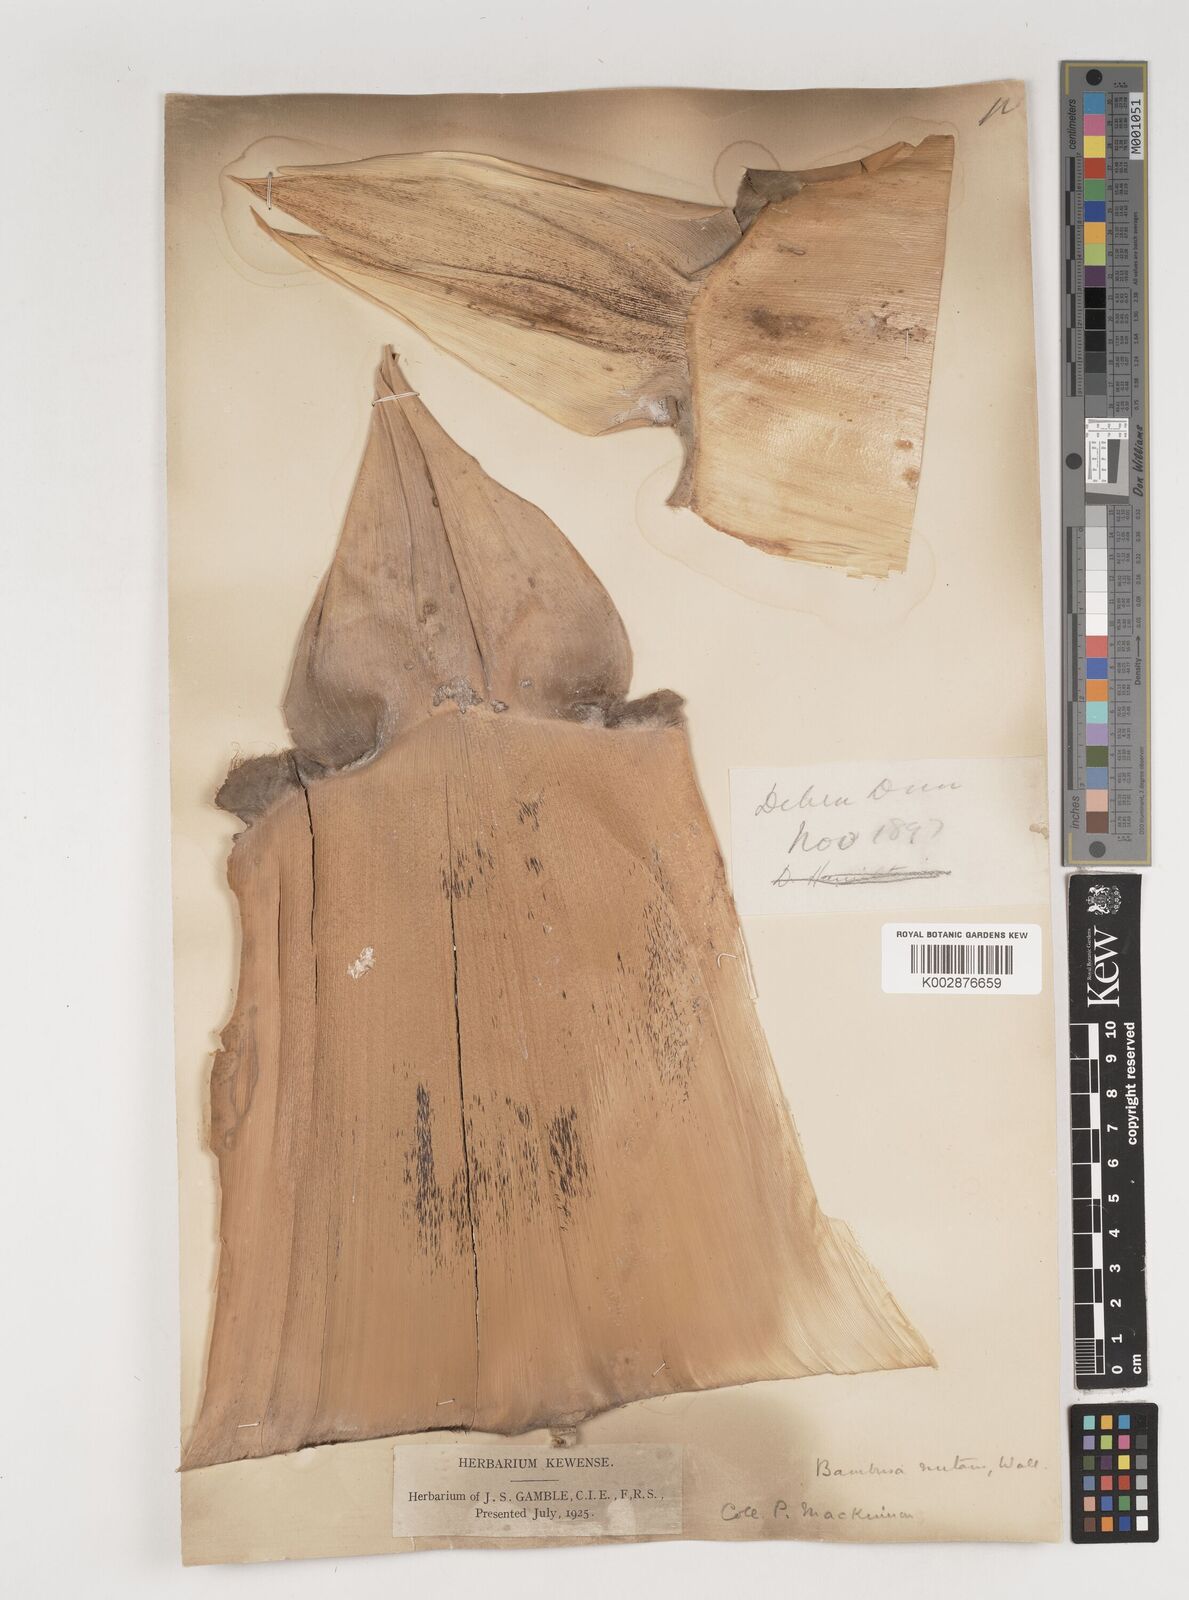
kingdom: Plantae
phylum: Tracheophyta
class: Liliopsida
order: Poales
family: Poaceae
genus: Bambusa
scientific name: Bambusa nutans
